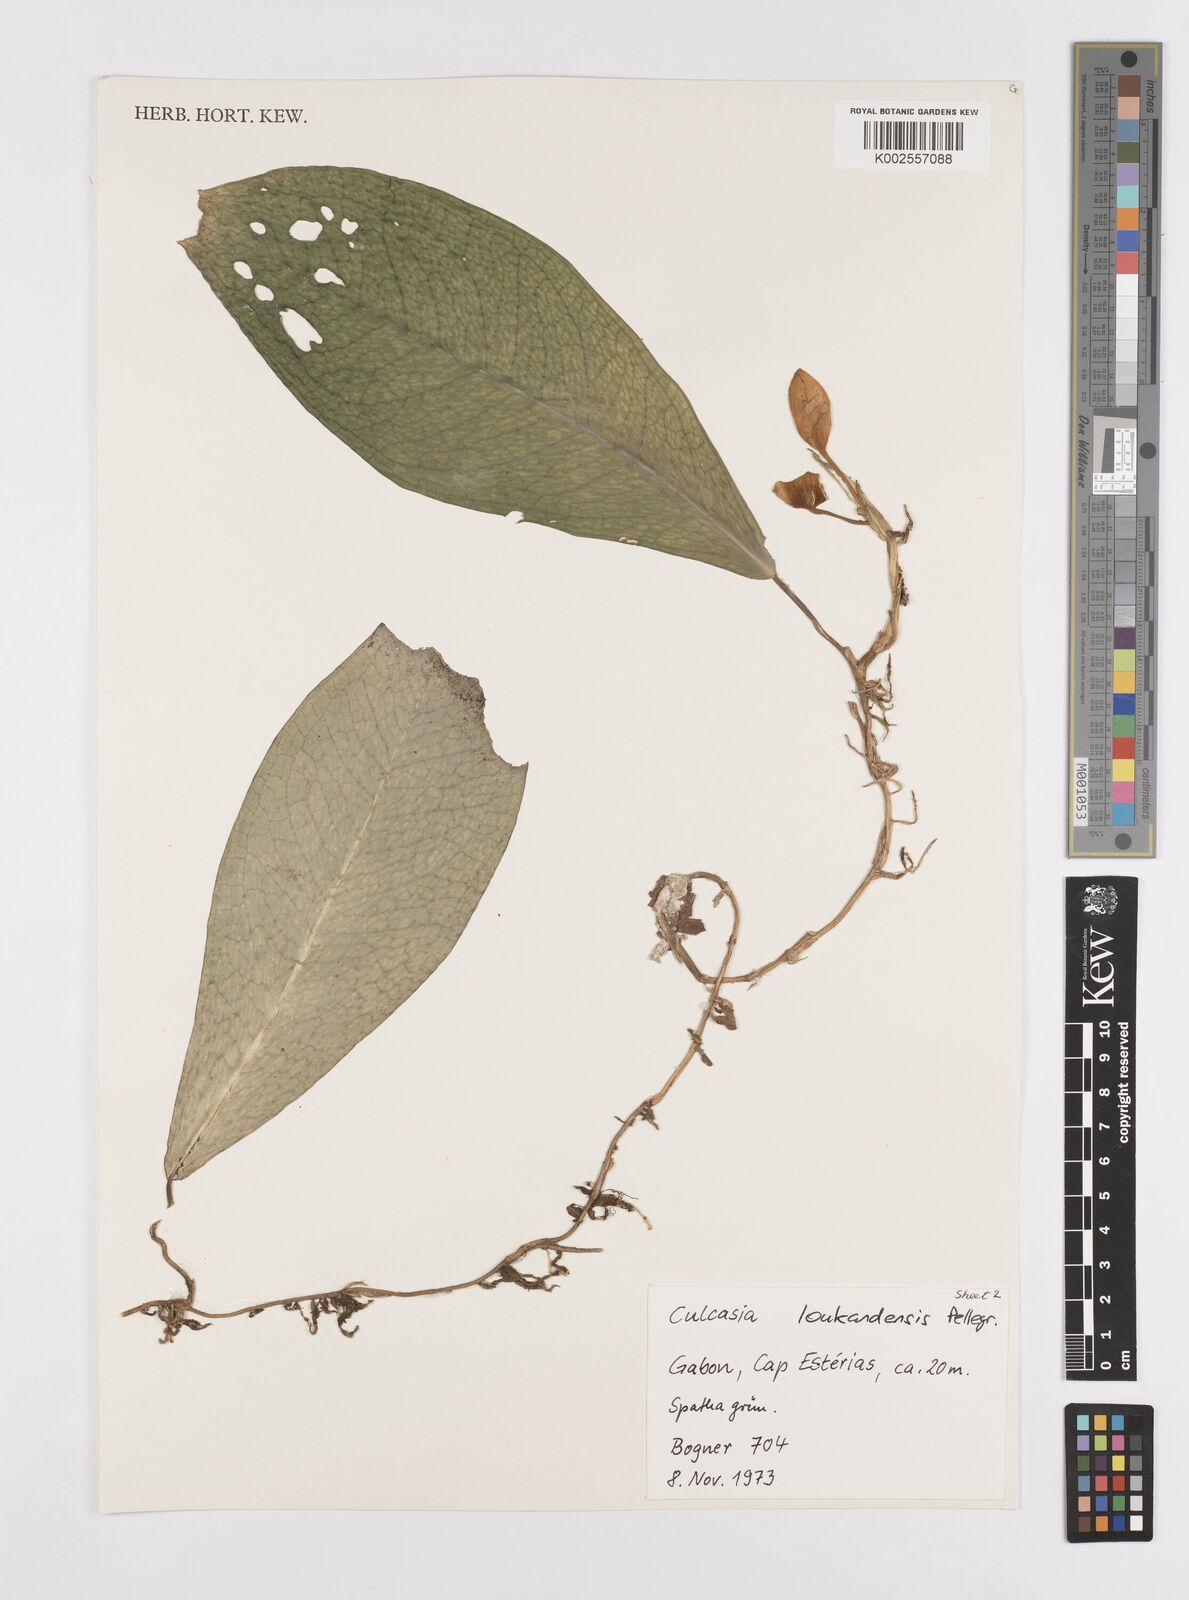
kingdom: Plantae
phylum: Tracheophyta
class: Liliopsida
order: Alismatales
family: Araceae
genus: Culcasia
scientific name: Culcasia loukandensis
